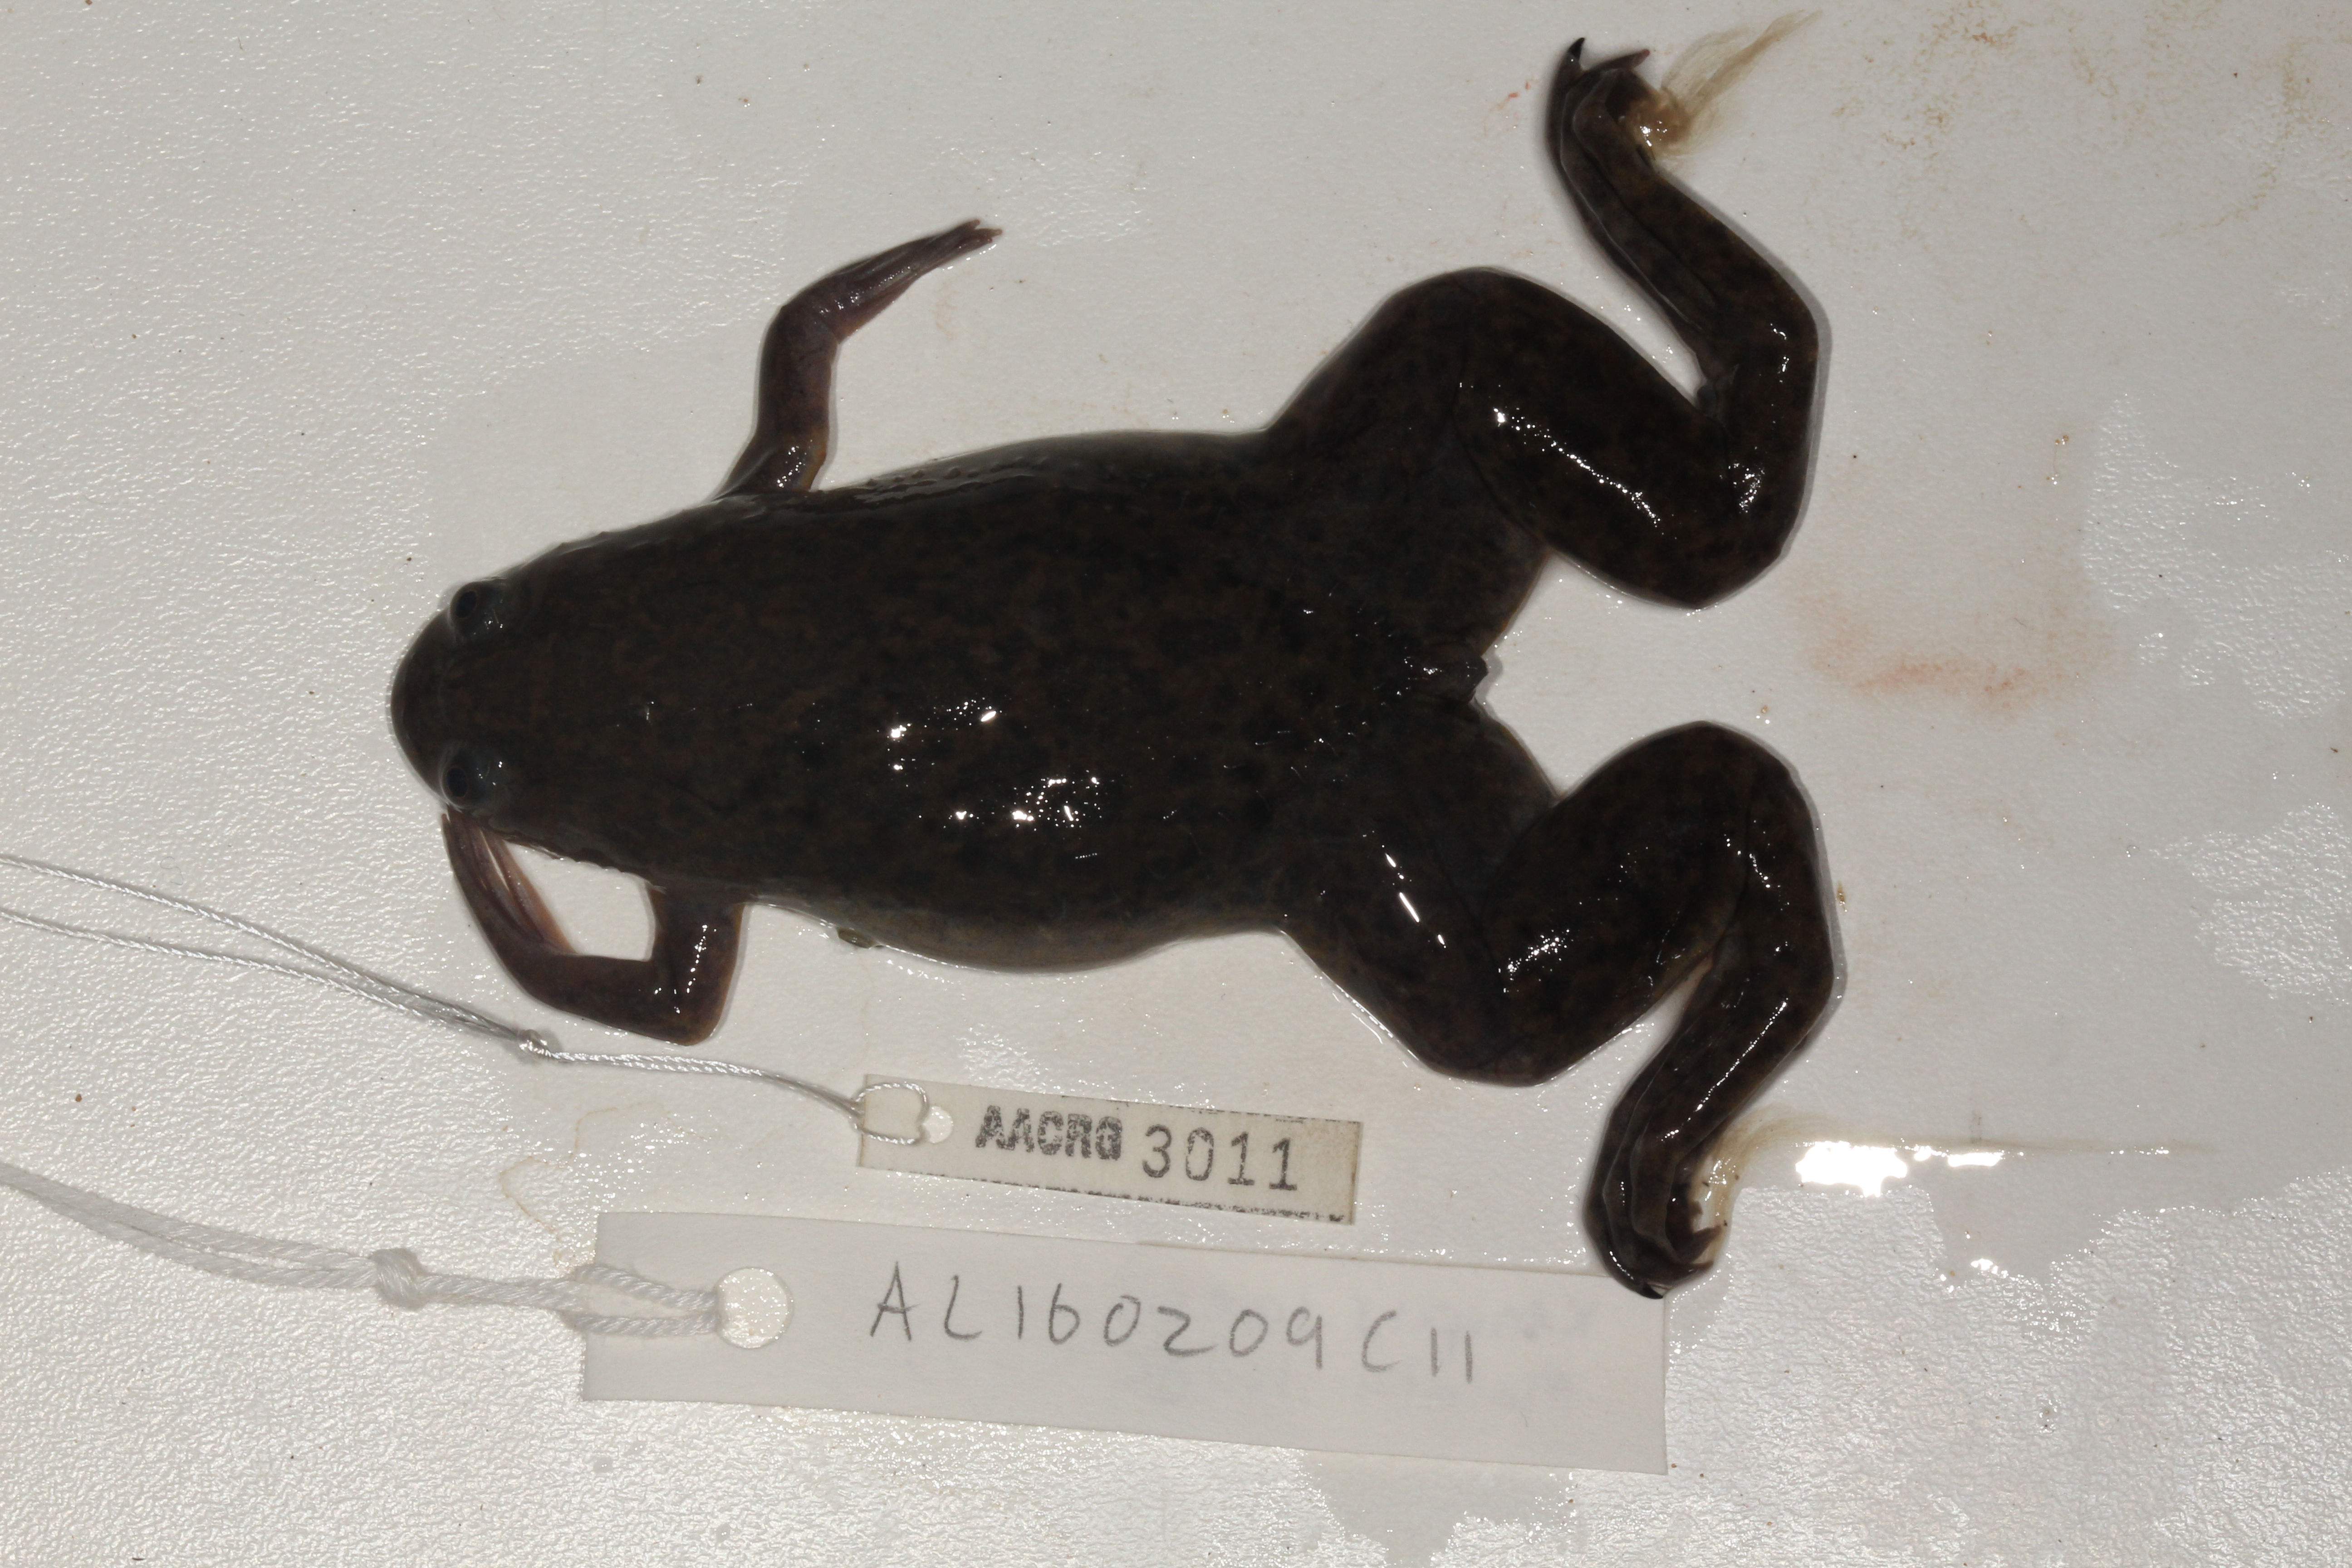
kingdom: Animalia
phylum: Chordata
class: Amphibia
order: Anura
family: Pipidae
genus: Xenopus
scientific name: Xenopus laevis
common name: African clawed frog
